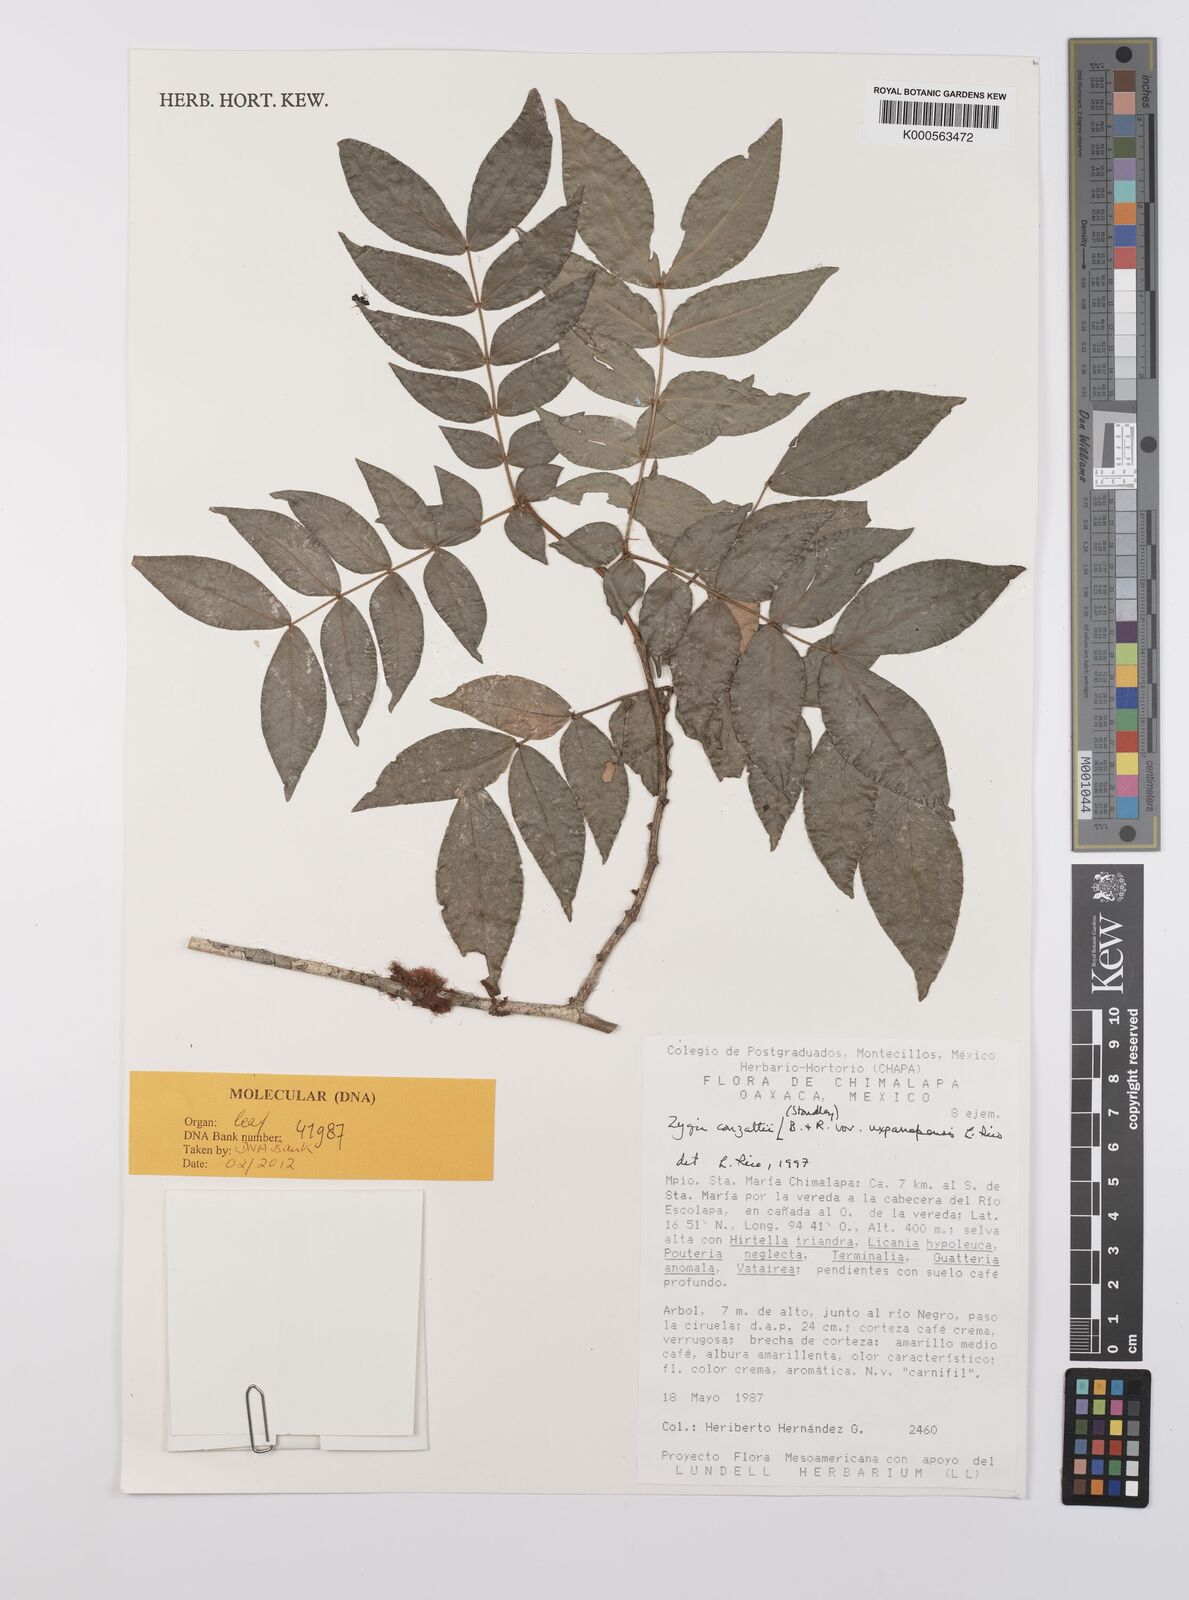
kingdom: Plantae
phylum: Tracheophyta
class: Magnoliopsida
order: Fabales
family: Fabaceae
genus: Zygia
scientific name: Zygia conzattii
